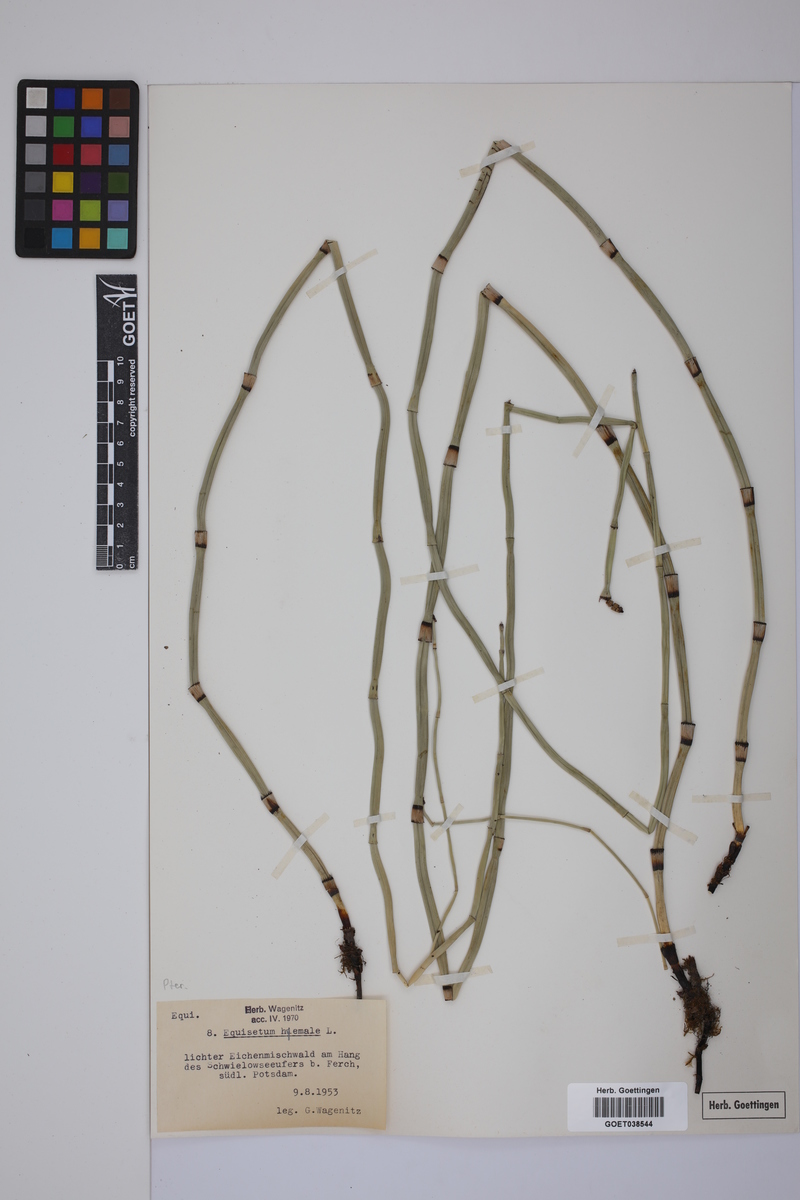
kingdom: Plantae
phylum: Tracheophyta
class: Polypodiopsida
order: Equisetales
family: Equisetaceae
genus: Equisetum
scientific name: Equisetum hyemale
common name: Rough horsetail
